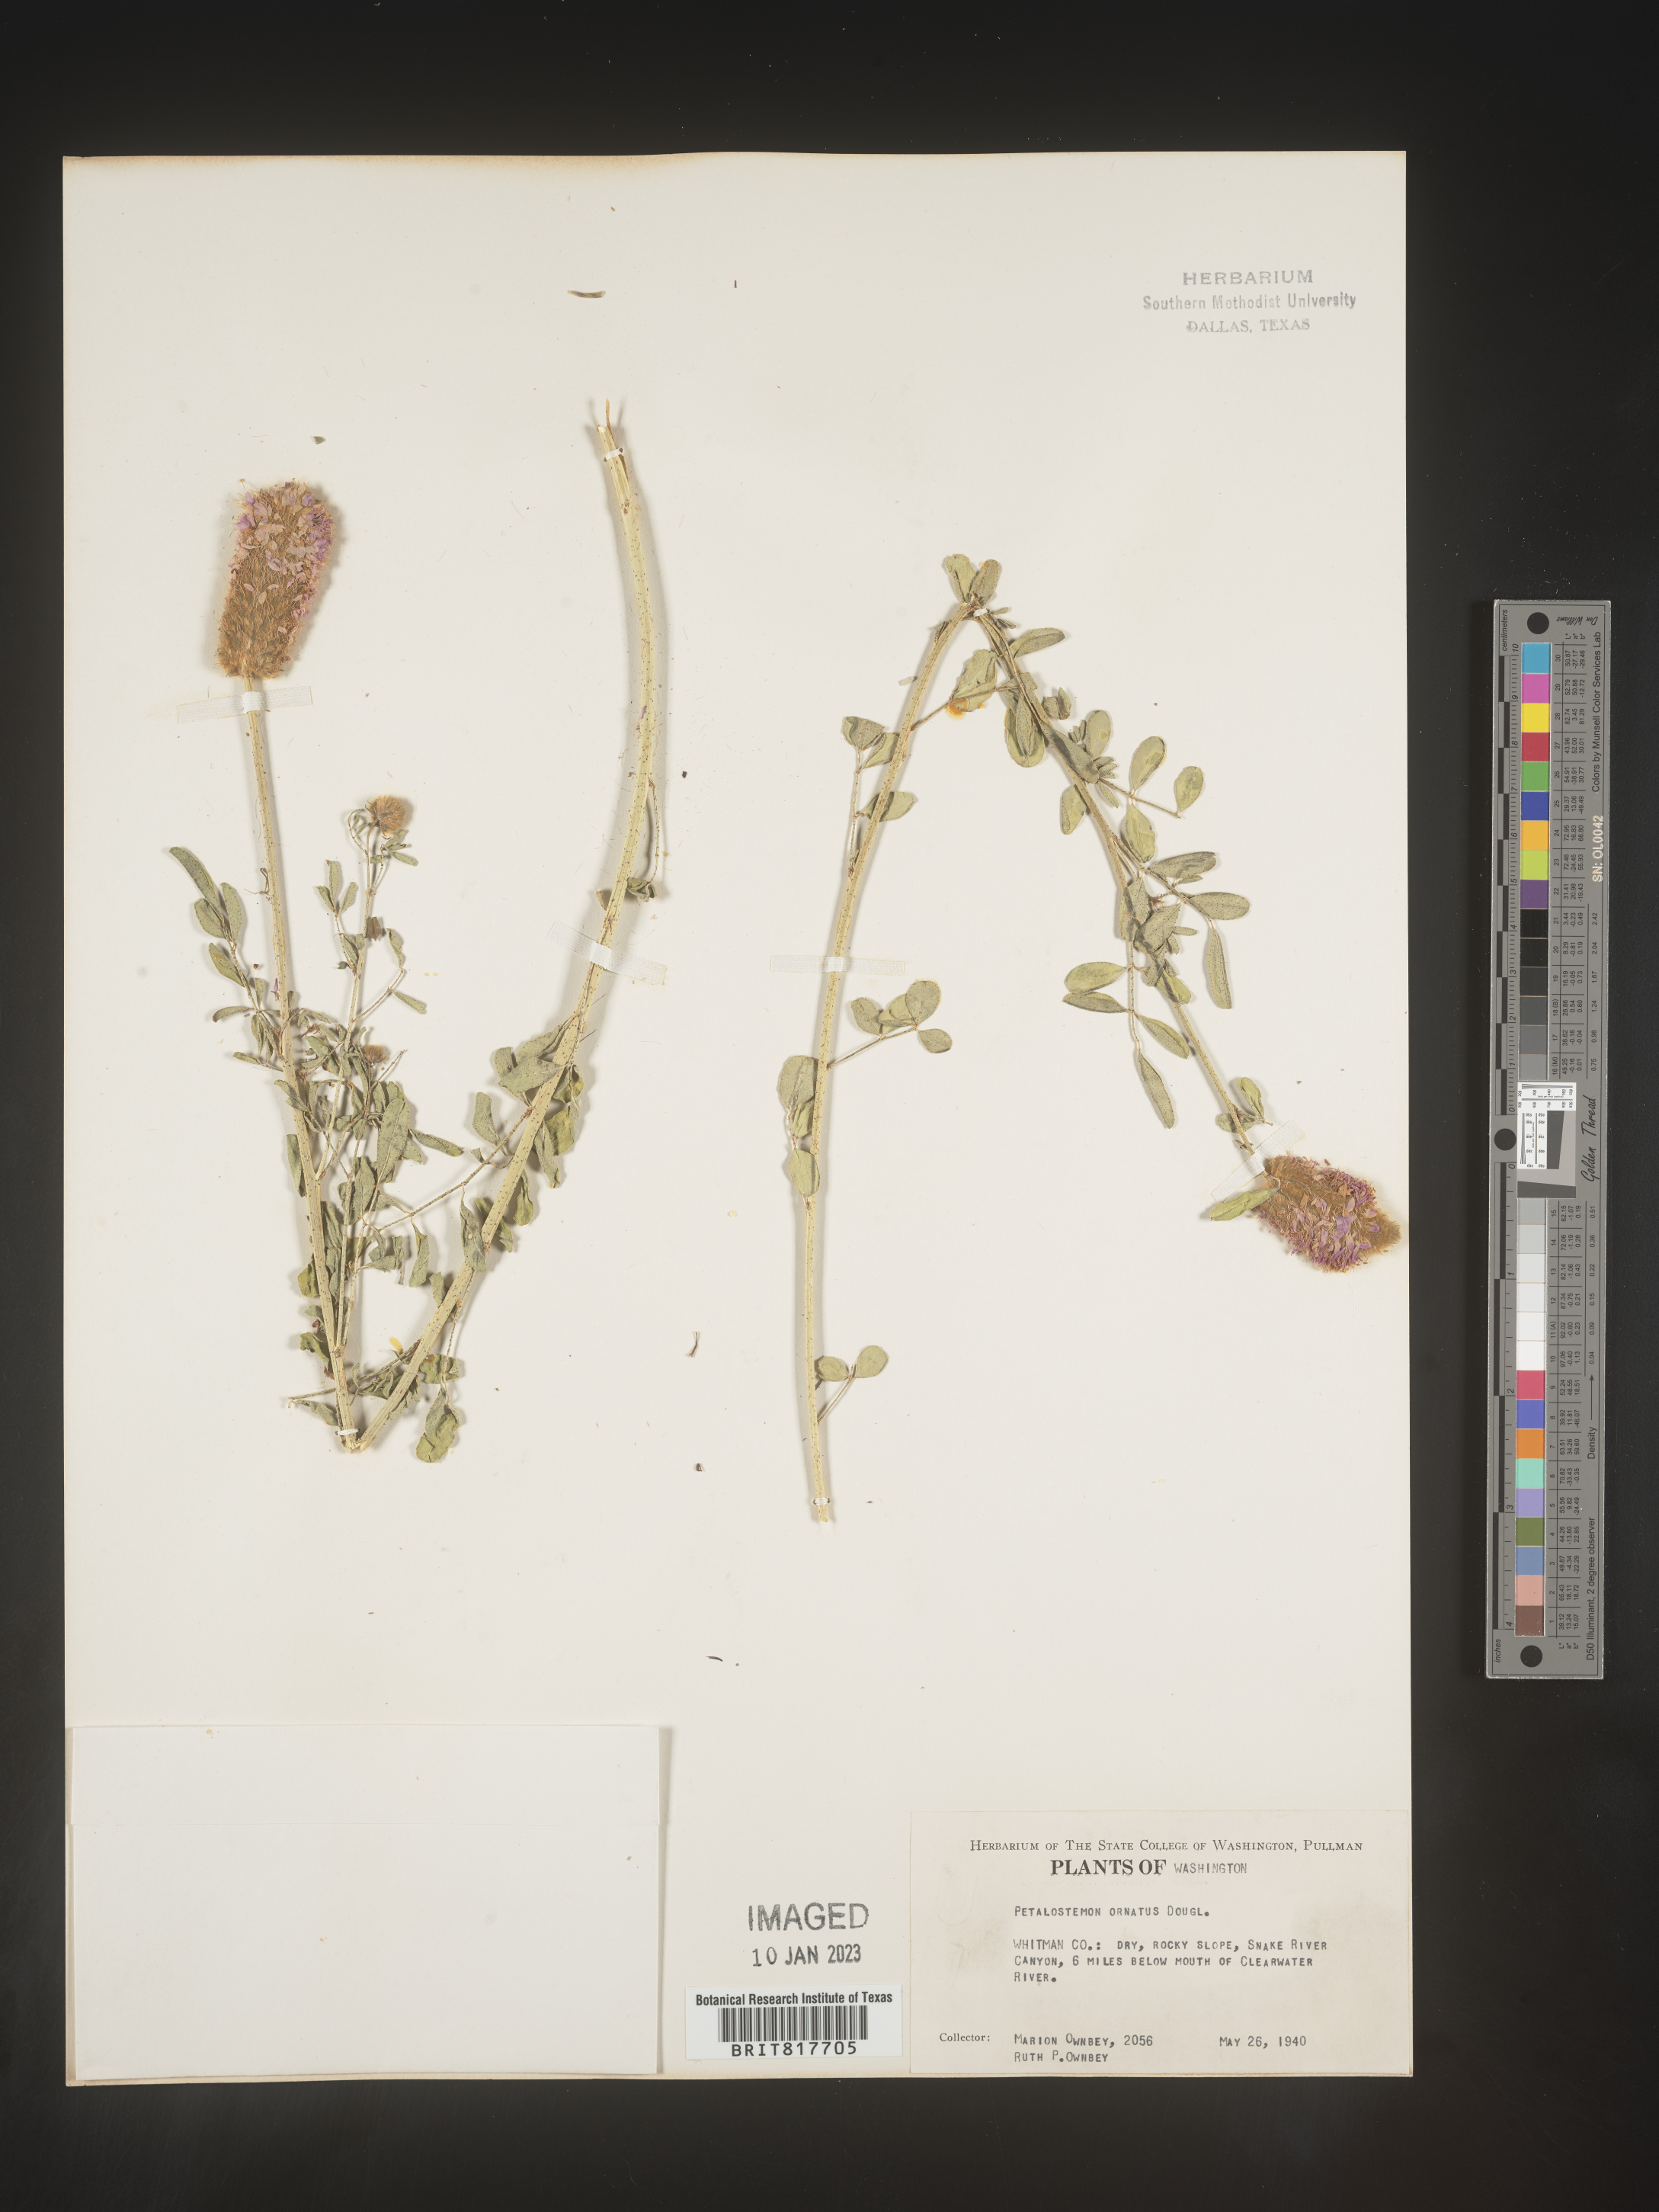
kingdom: Plantae
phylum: Tracheophyta
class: Magnoliopsida
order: Fabales
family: Fabaceae
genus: Dalea
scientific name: Dalea ornata
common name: Blue mountain prairie-clover
